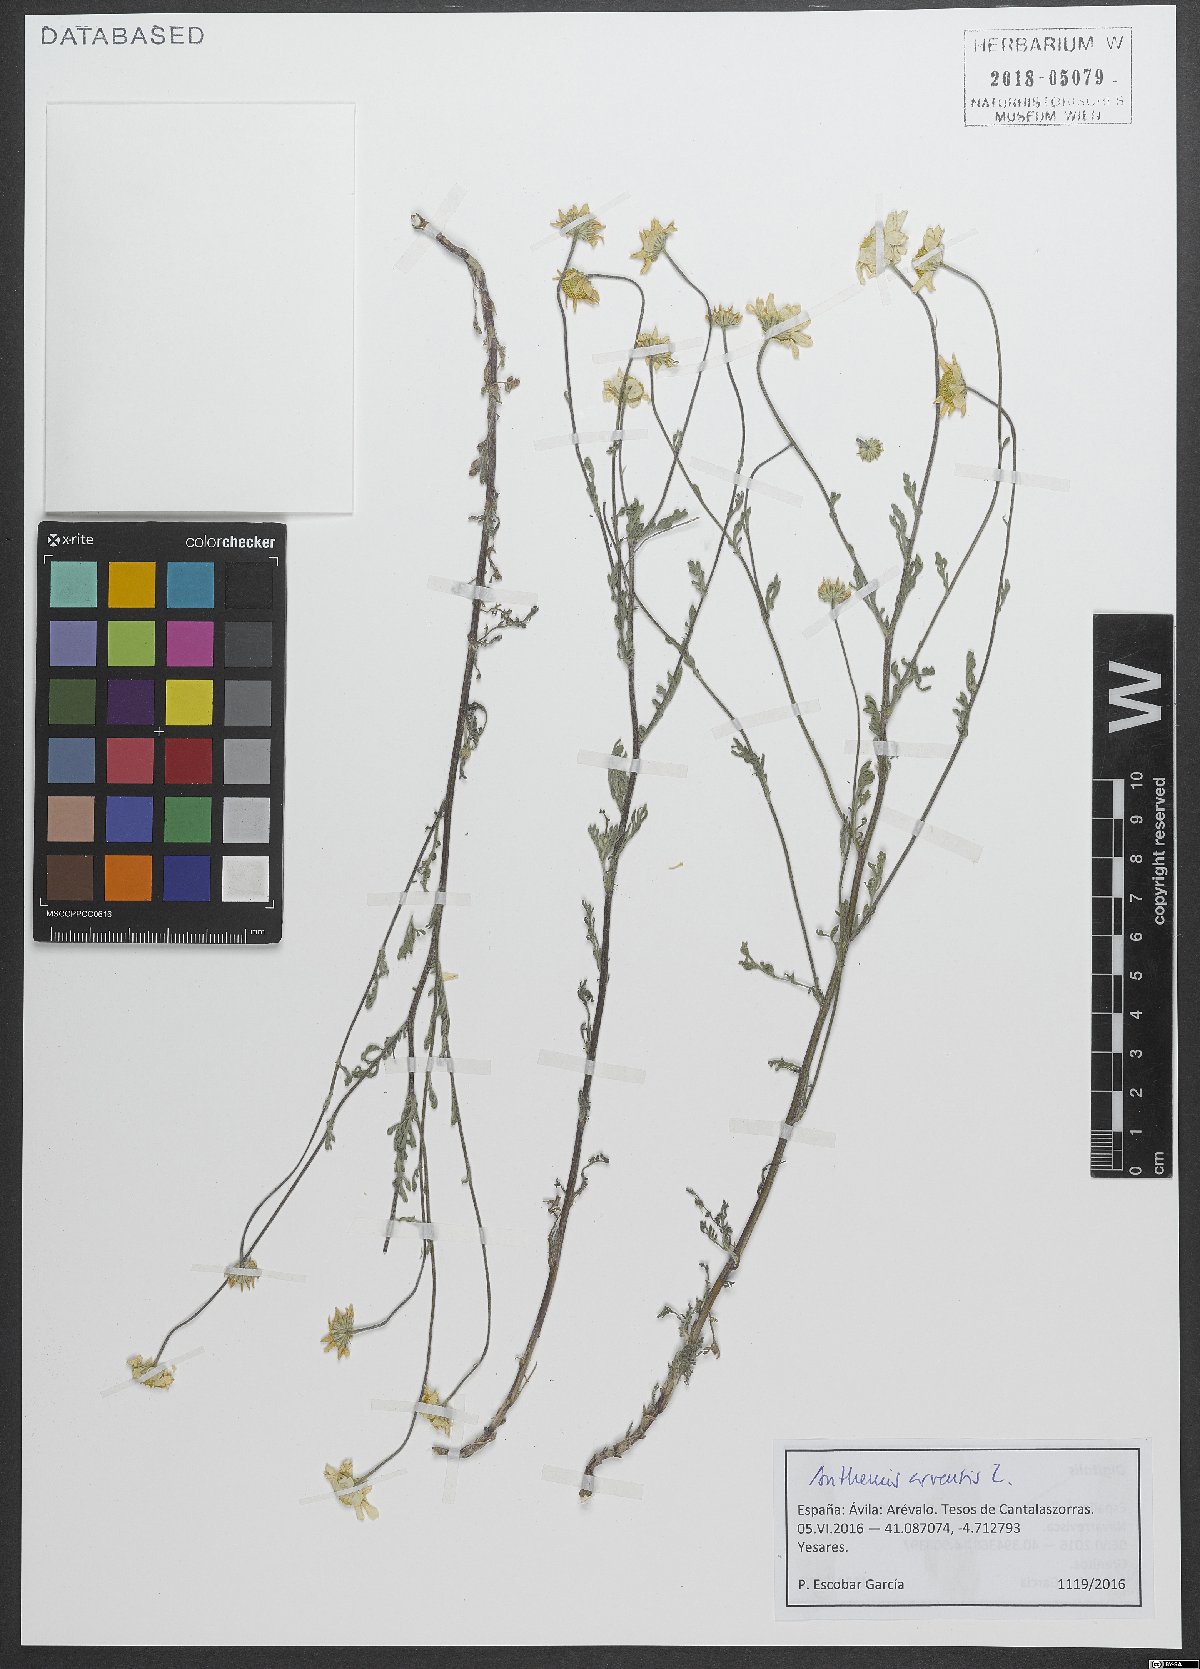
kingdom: Plantae
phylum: Tracheophyta
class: Magnoliopsida
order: Asterales
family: Asteraceae
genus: Anthemis
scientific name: Anthemis arvensis
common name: Corn chamomile
